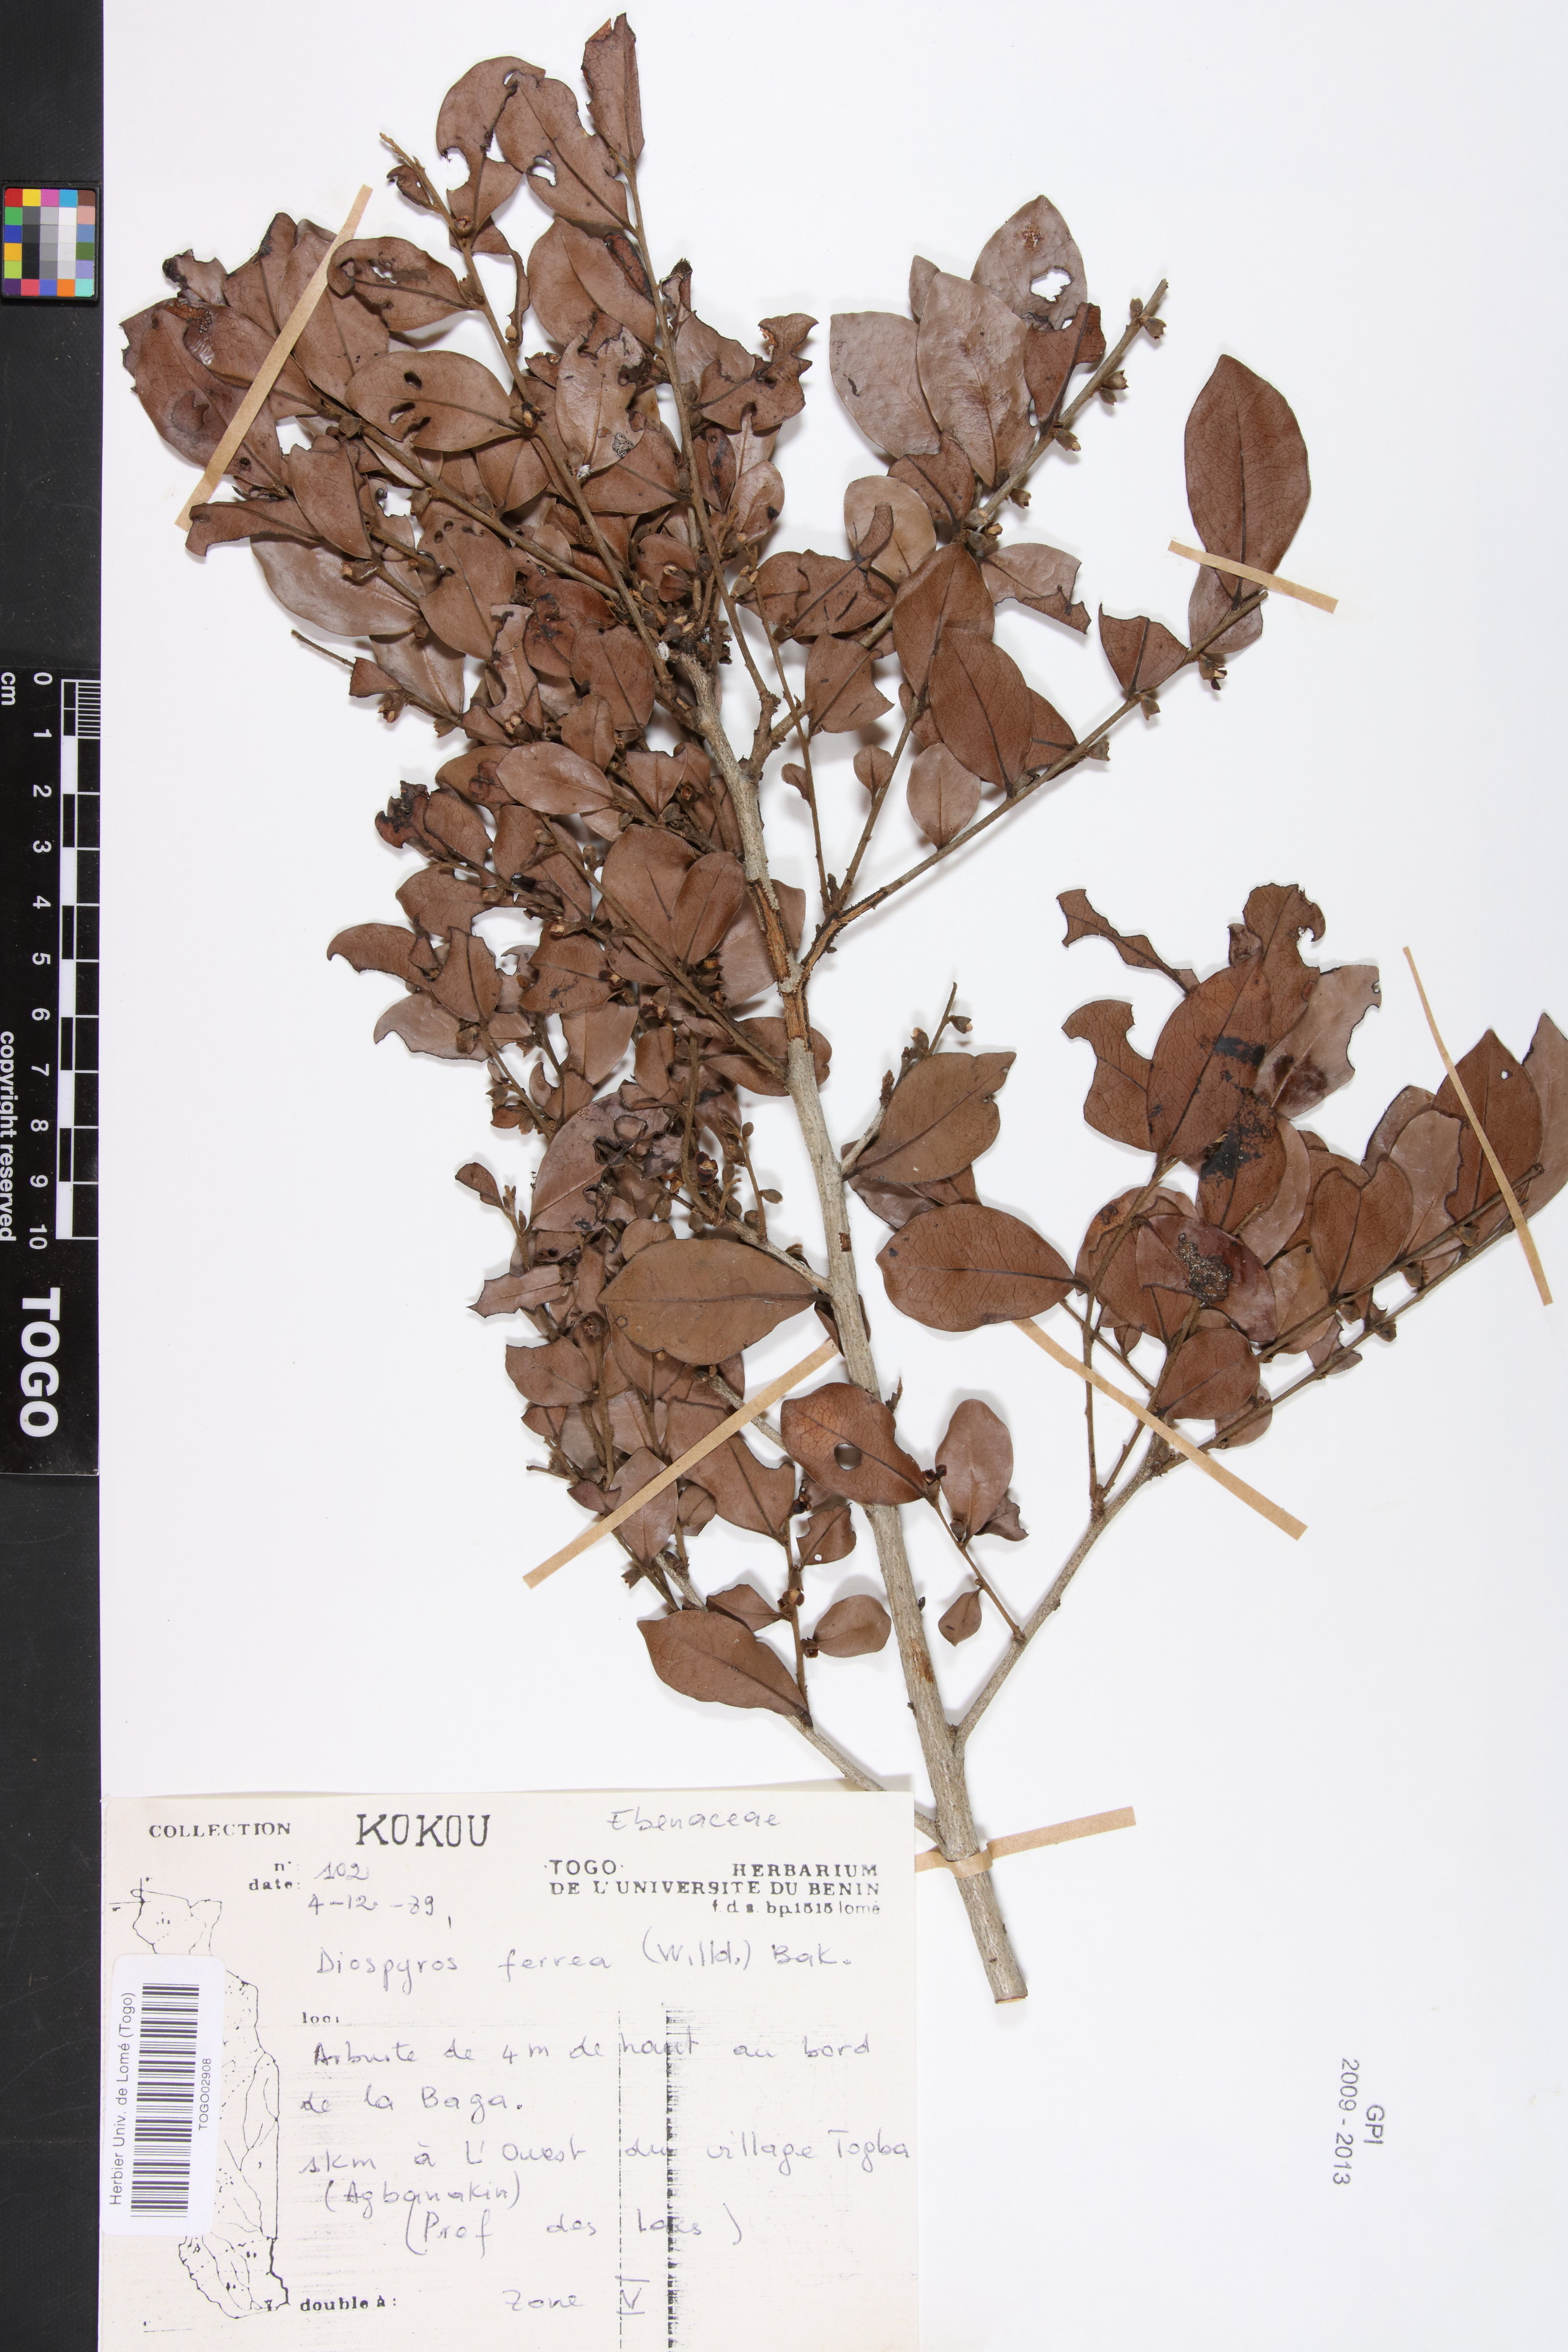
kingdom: Plantae
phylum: Tracheophyta
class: Magnoliopsida
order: Ericales
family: Ebenaceae
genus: Diospyros
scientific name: Diospyros ferrea
